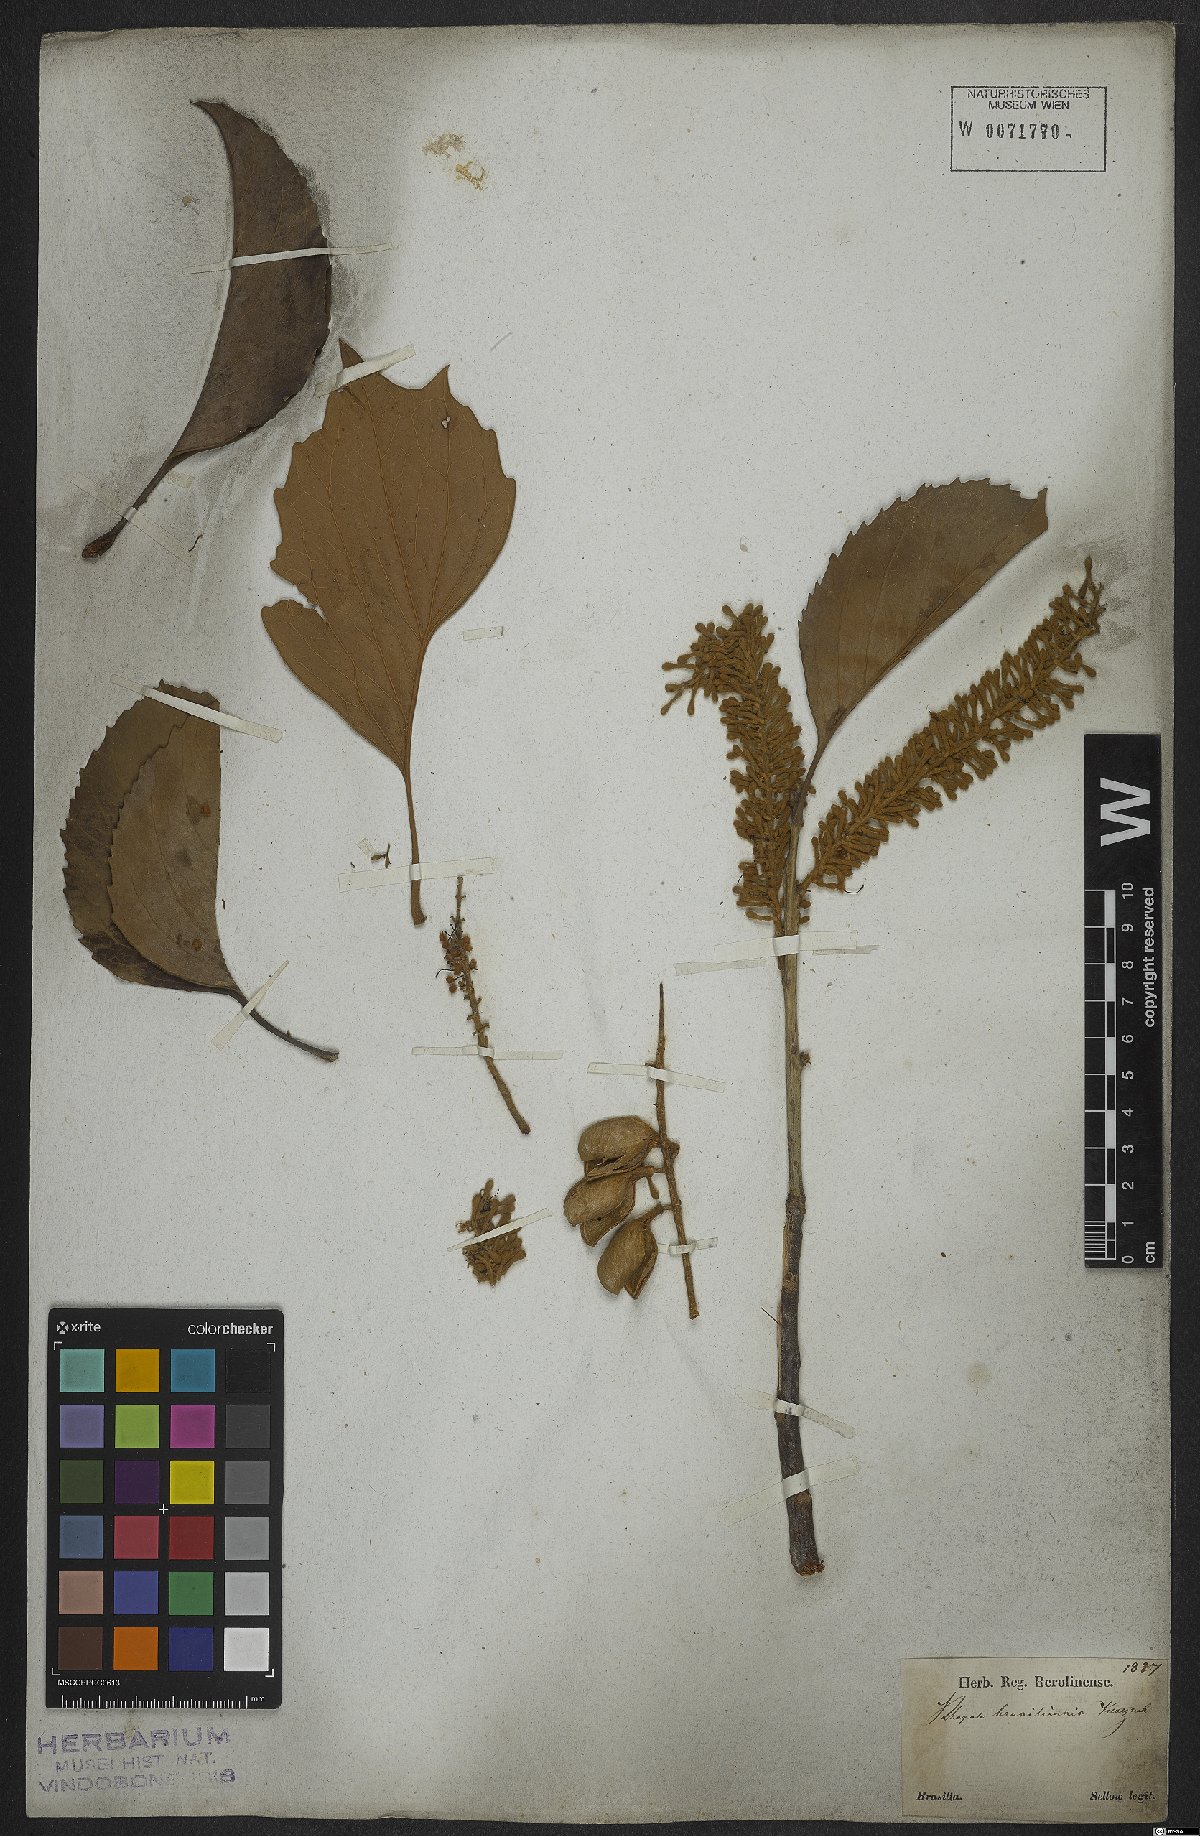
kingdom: Plantae
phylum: Tracheophyta
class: Magnoliopsida
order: Proteales
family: Proteaceae
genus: Roupala
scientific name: Roupala montana
